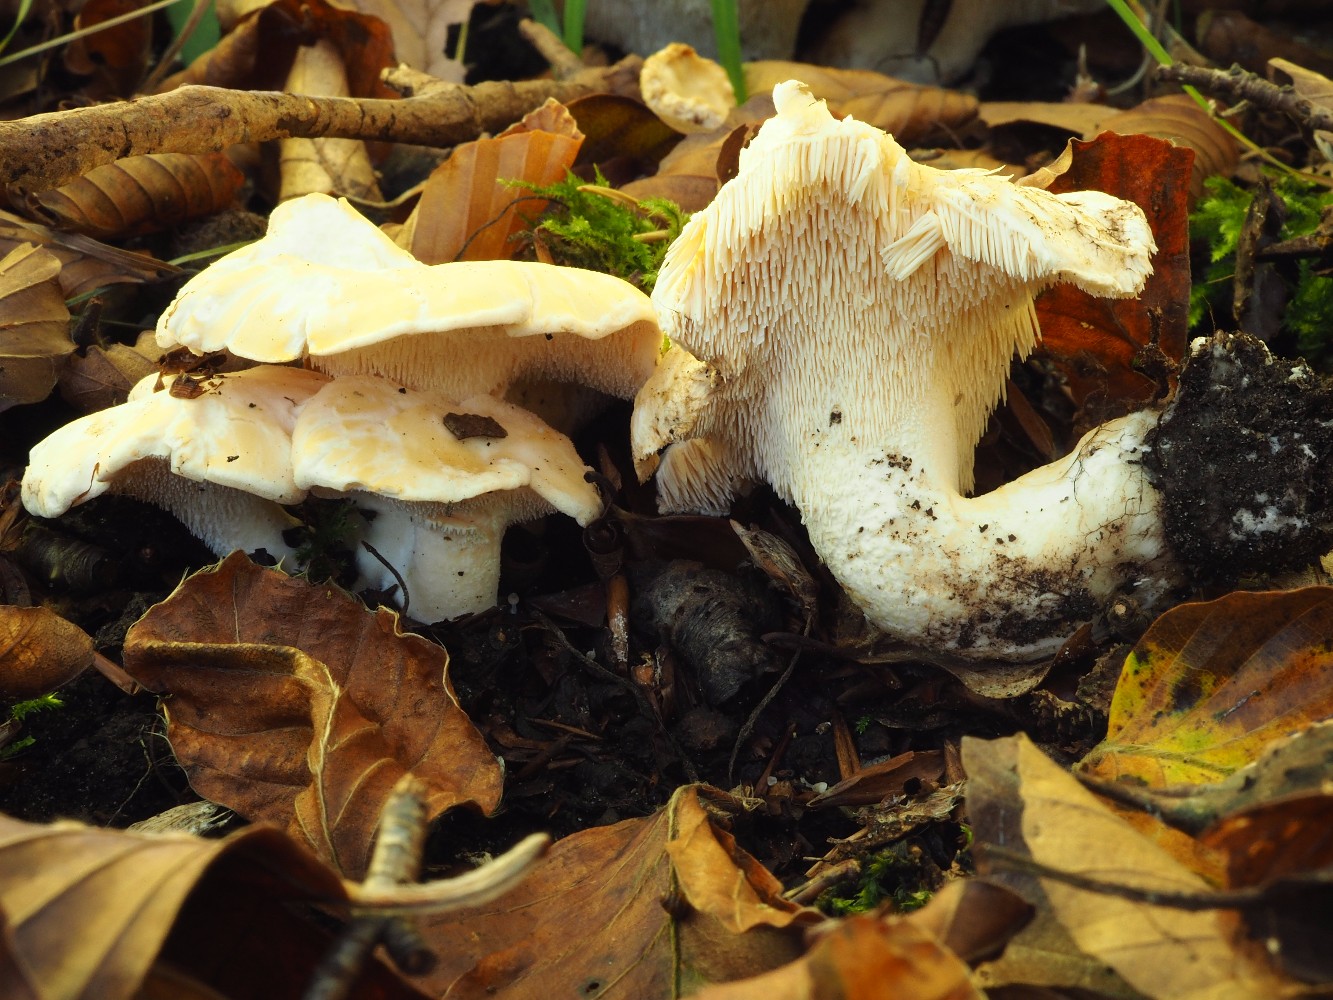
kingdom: Fungi
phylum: Basidiomycota
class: Agaricomycetes
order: Cantharellales
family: Hydnaceae
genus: Hydnum
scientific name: Hydnum repandum
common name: almindelig pigsvamp
